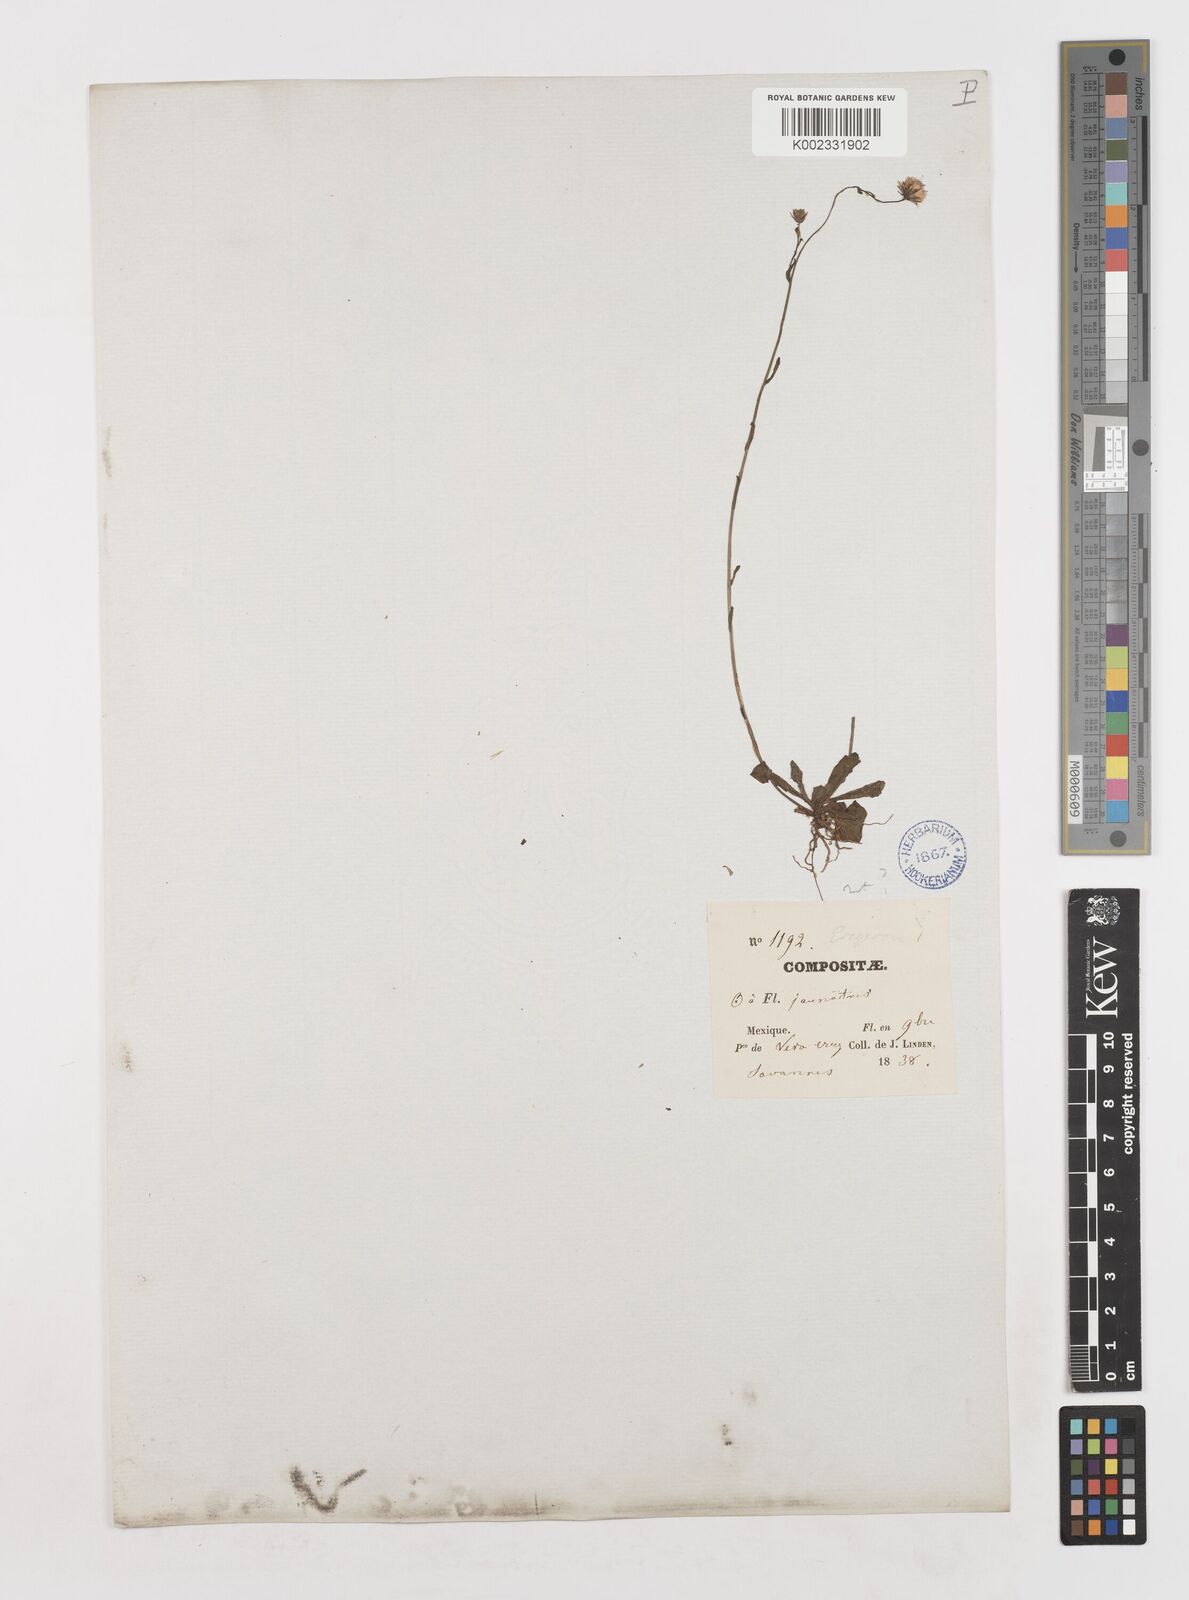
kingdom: Plantae
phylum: Tracheophyta
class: Magnoliopsida
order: Asterales
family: Asteraceae
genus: Erigeron
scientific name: Erigeron
